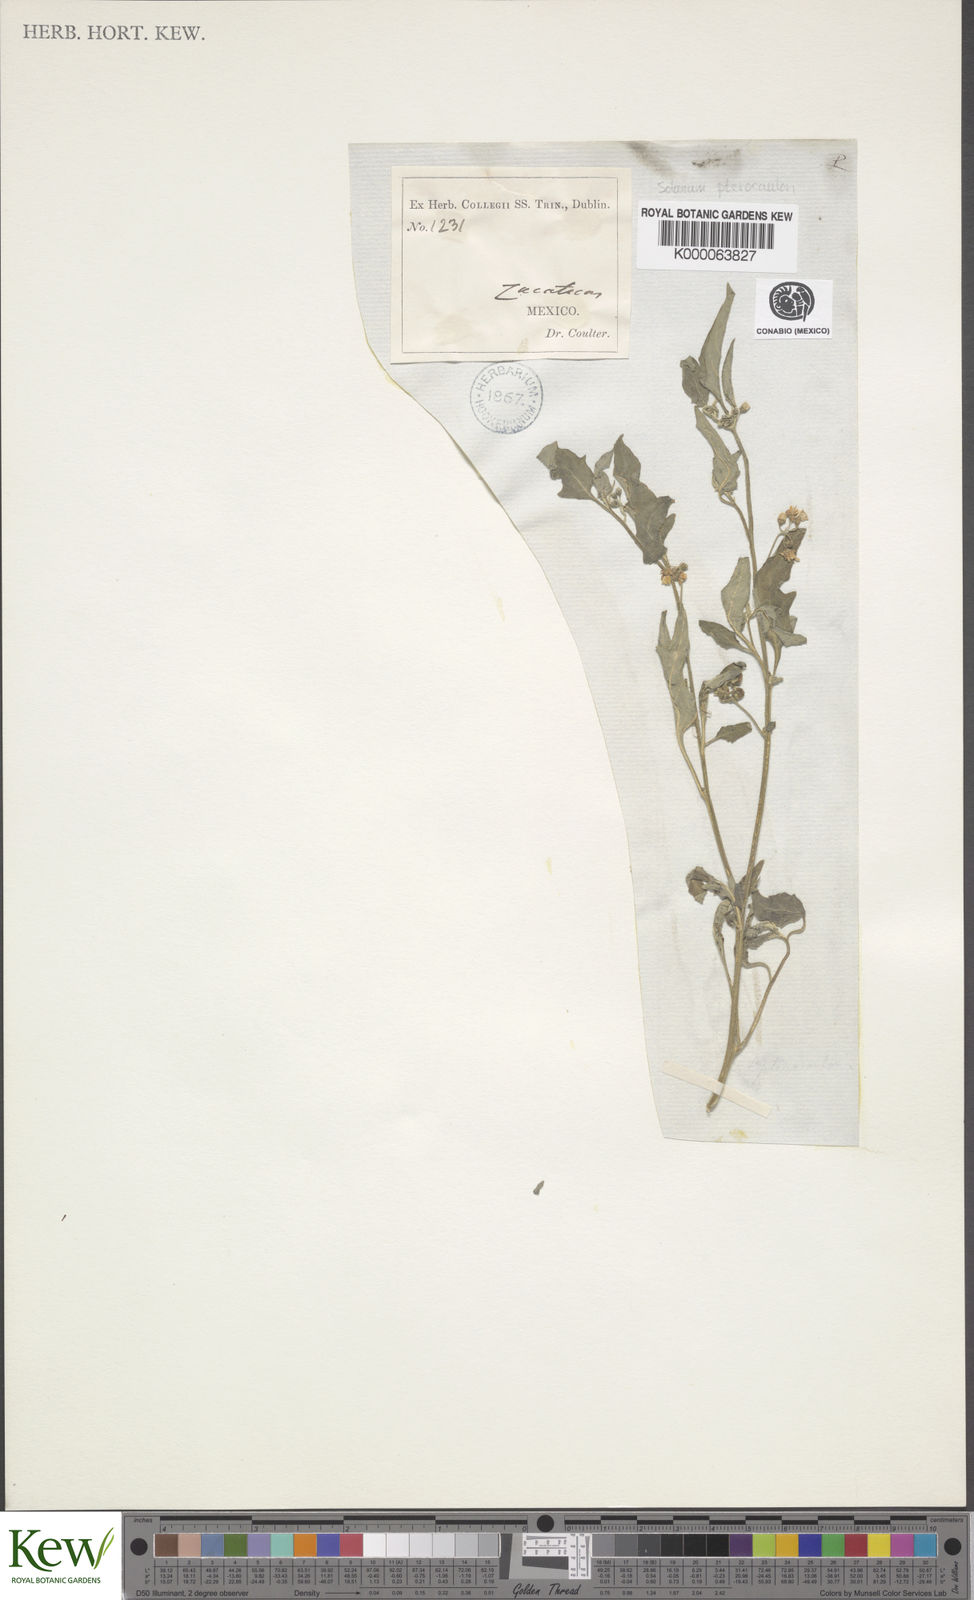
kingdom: Plantae
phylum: Tracheophyta
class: Magnoliopsida
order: Solanales
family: Solanaceae
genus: Solanum
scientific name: Solanum
